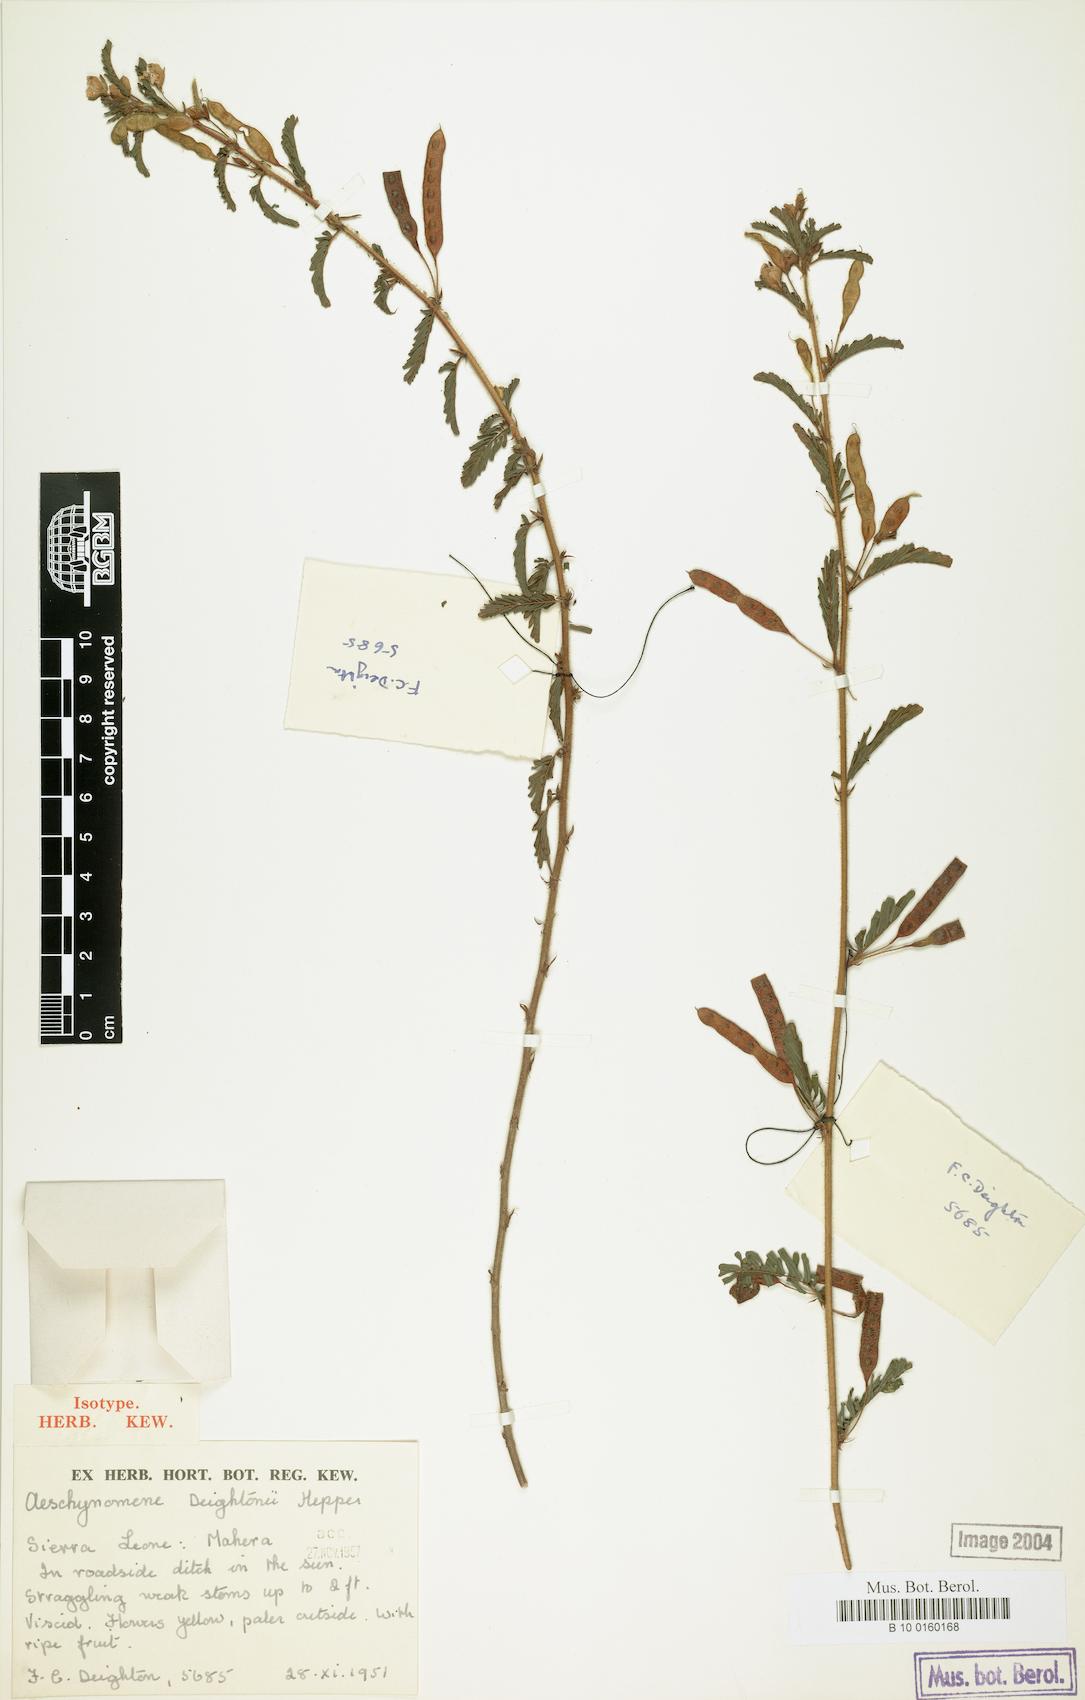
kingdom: Plantae
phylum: Tracheophyta
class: Magnoliopsida
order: Fabales
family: Fabaceae
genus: Aeschynomene
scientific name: Aeschynomene deightonii
